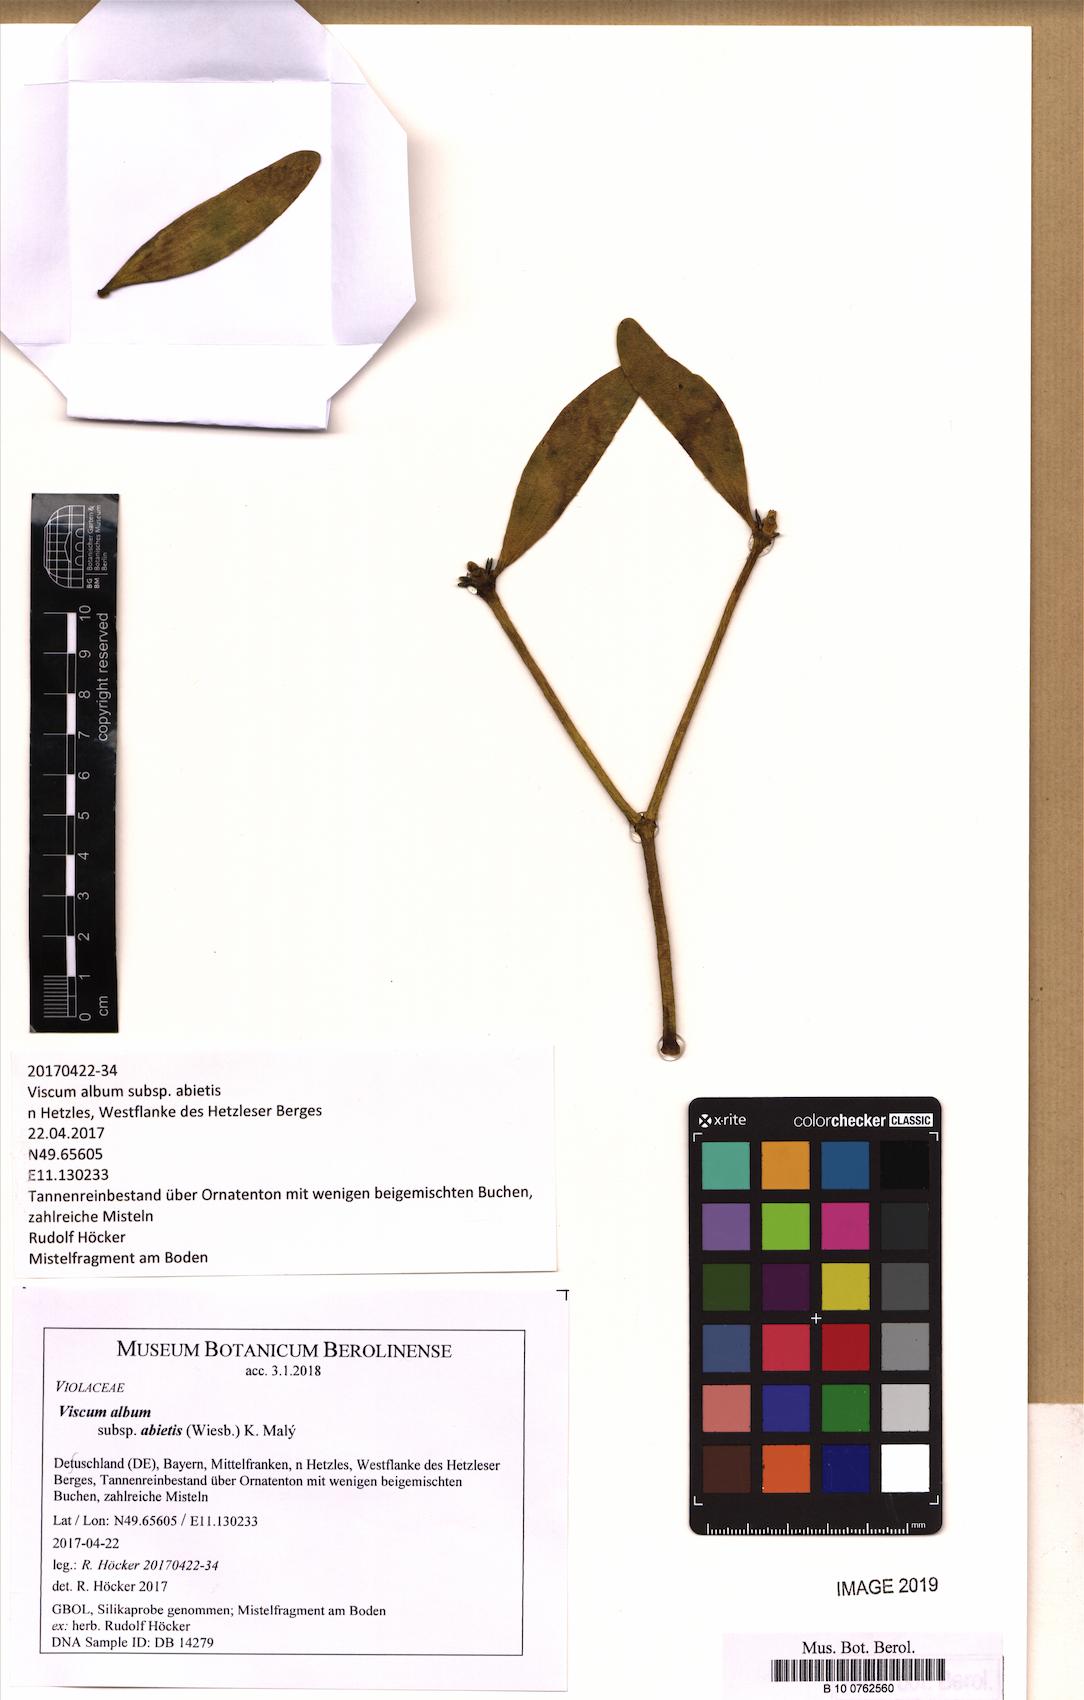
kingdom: Plantae
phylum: Tracheophyta
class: Magnoliopsida
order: Santalales
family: Viscaceae
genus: Viscum
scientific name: Viscum album
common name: Mistletoe
